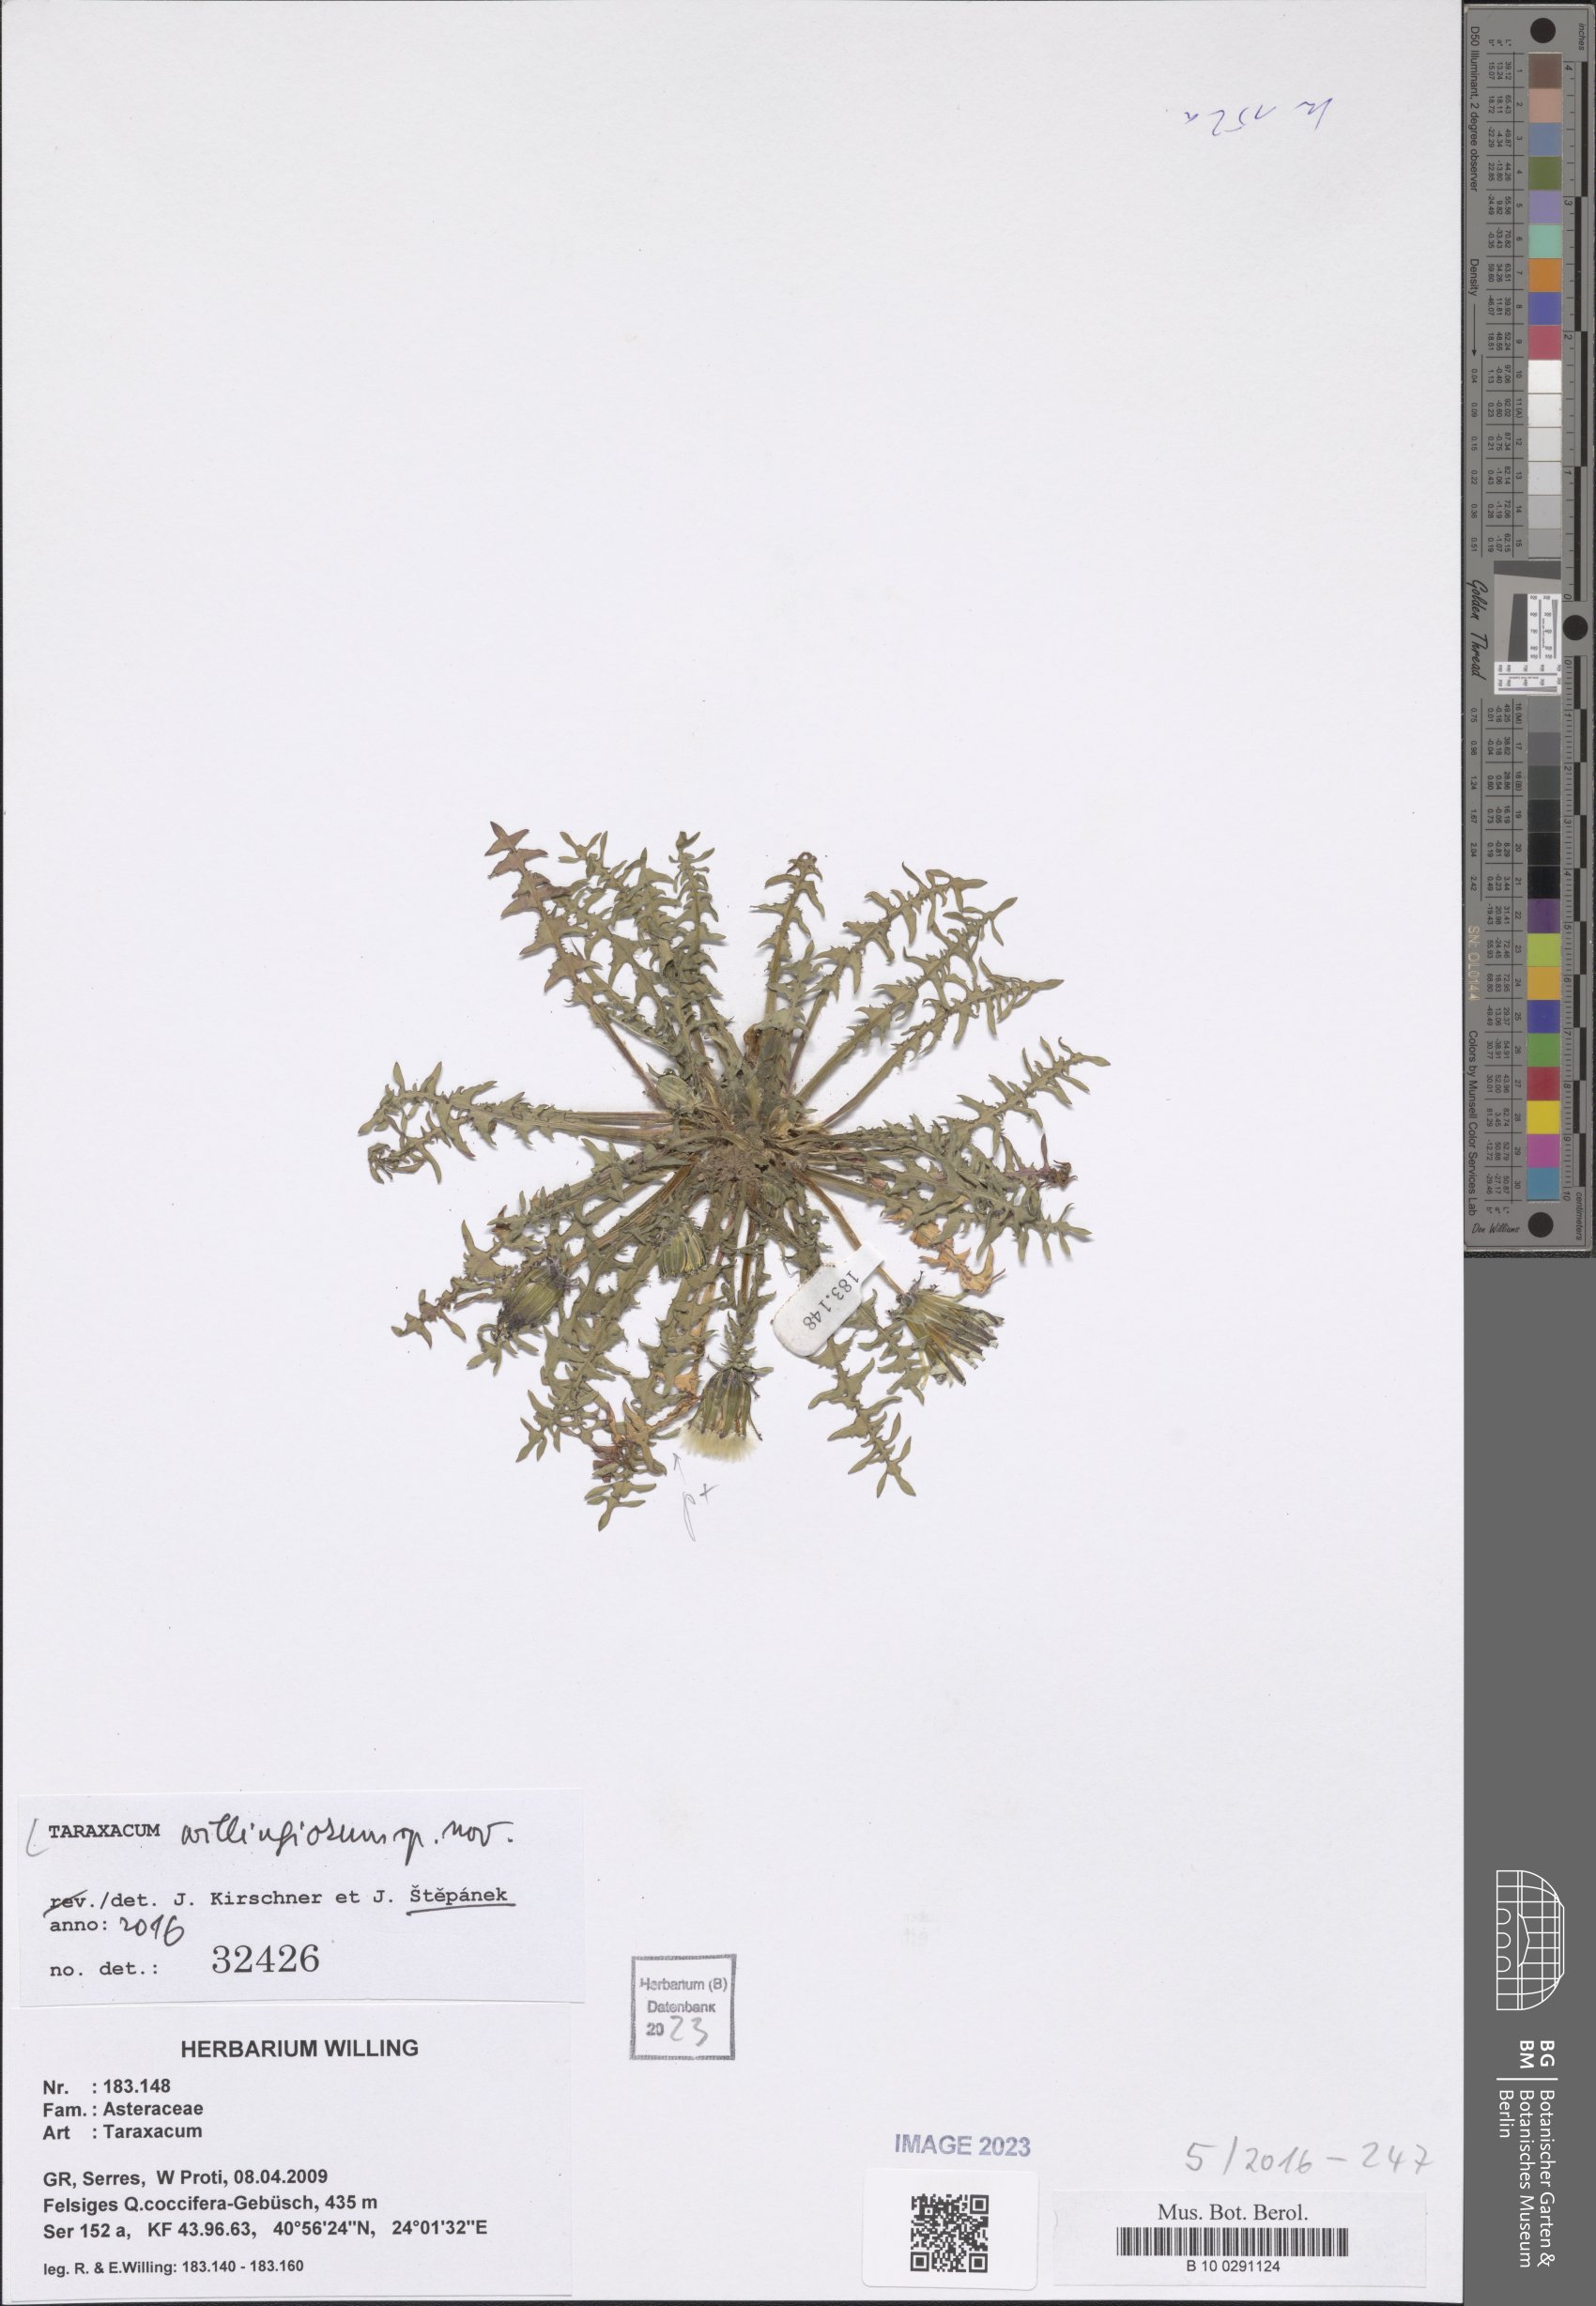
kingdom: Plantae
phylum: Tracheophyta
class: Magnoliopsida
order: Asterales
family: Asteraceae
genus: Taraxacum
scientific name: Taraxacum
